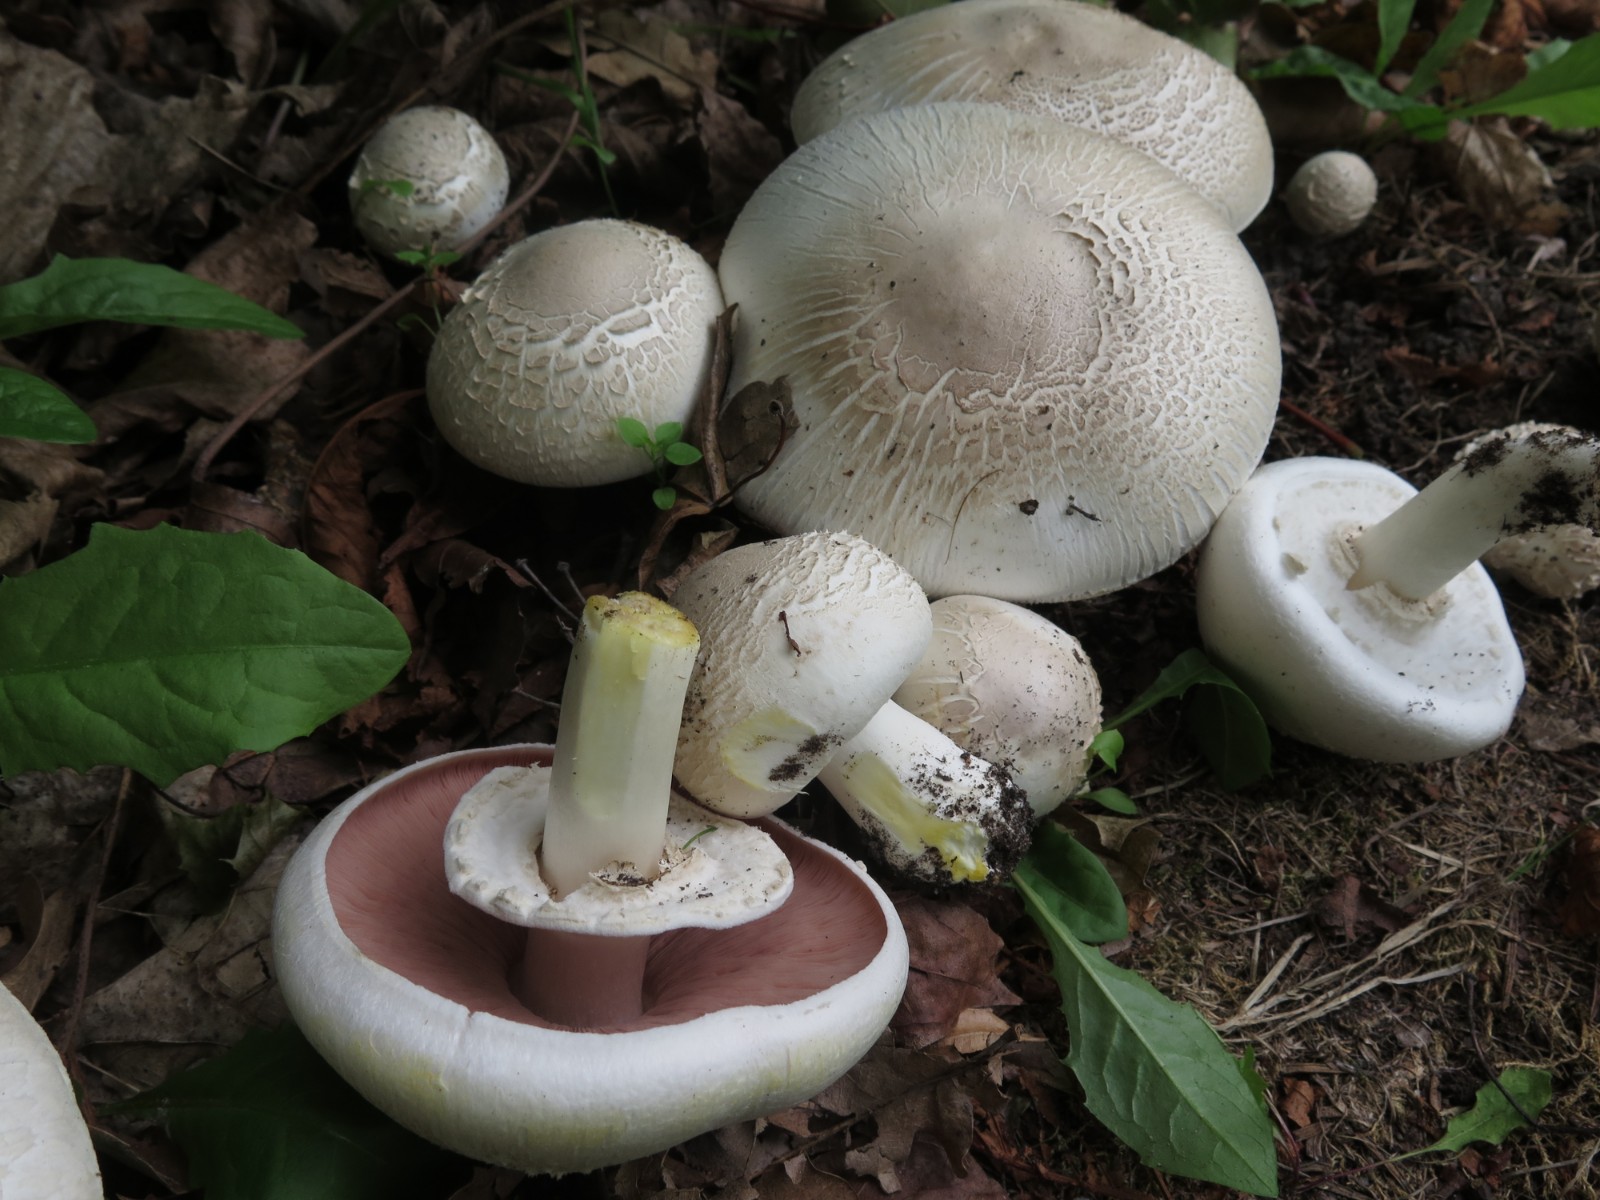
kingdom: Fungi
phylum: Basidiomycota
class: Agaricomycetes
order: Agaricales
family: Agaricaceae
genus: Agaricus
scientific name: Agaricus xanthodermus
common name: karbol-champignon
